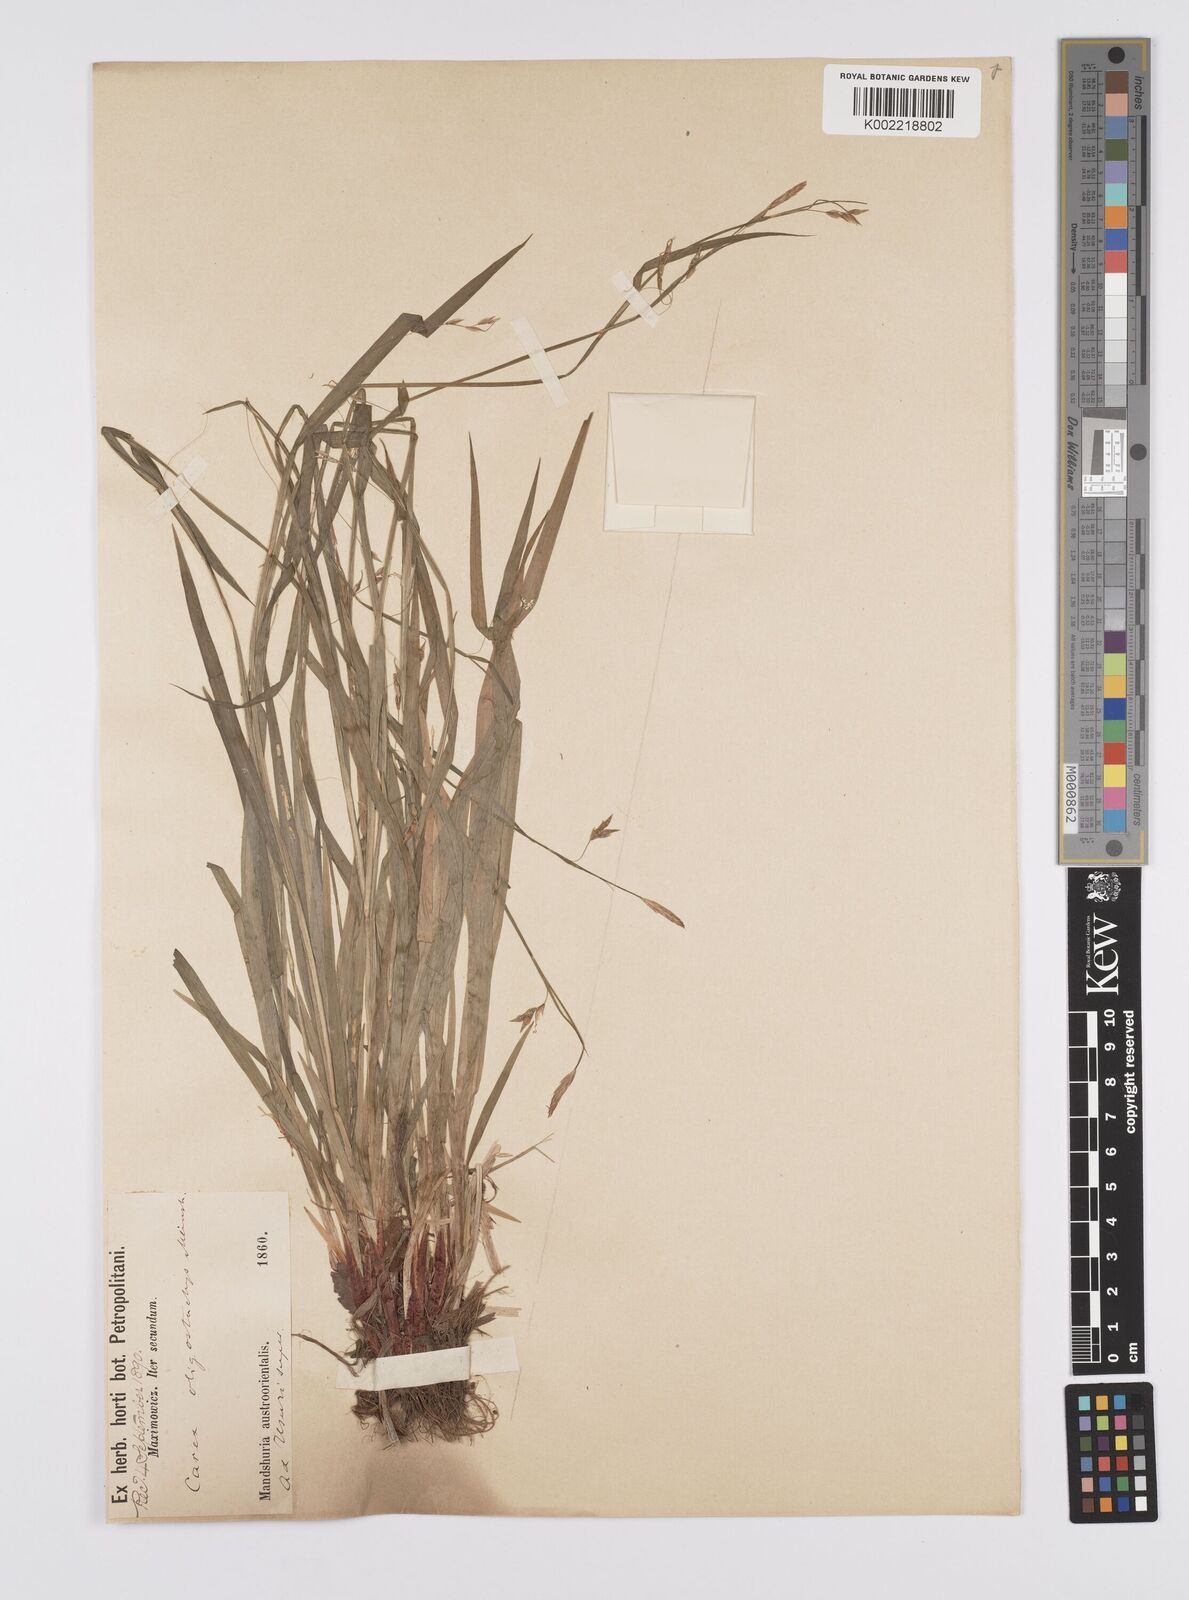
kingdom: Plantae
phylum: Tracheophyta
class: Liliopsida
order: Poales
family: Cyperaceae
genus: Carex
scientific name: Carex filipes
